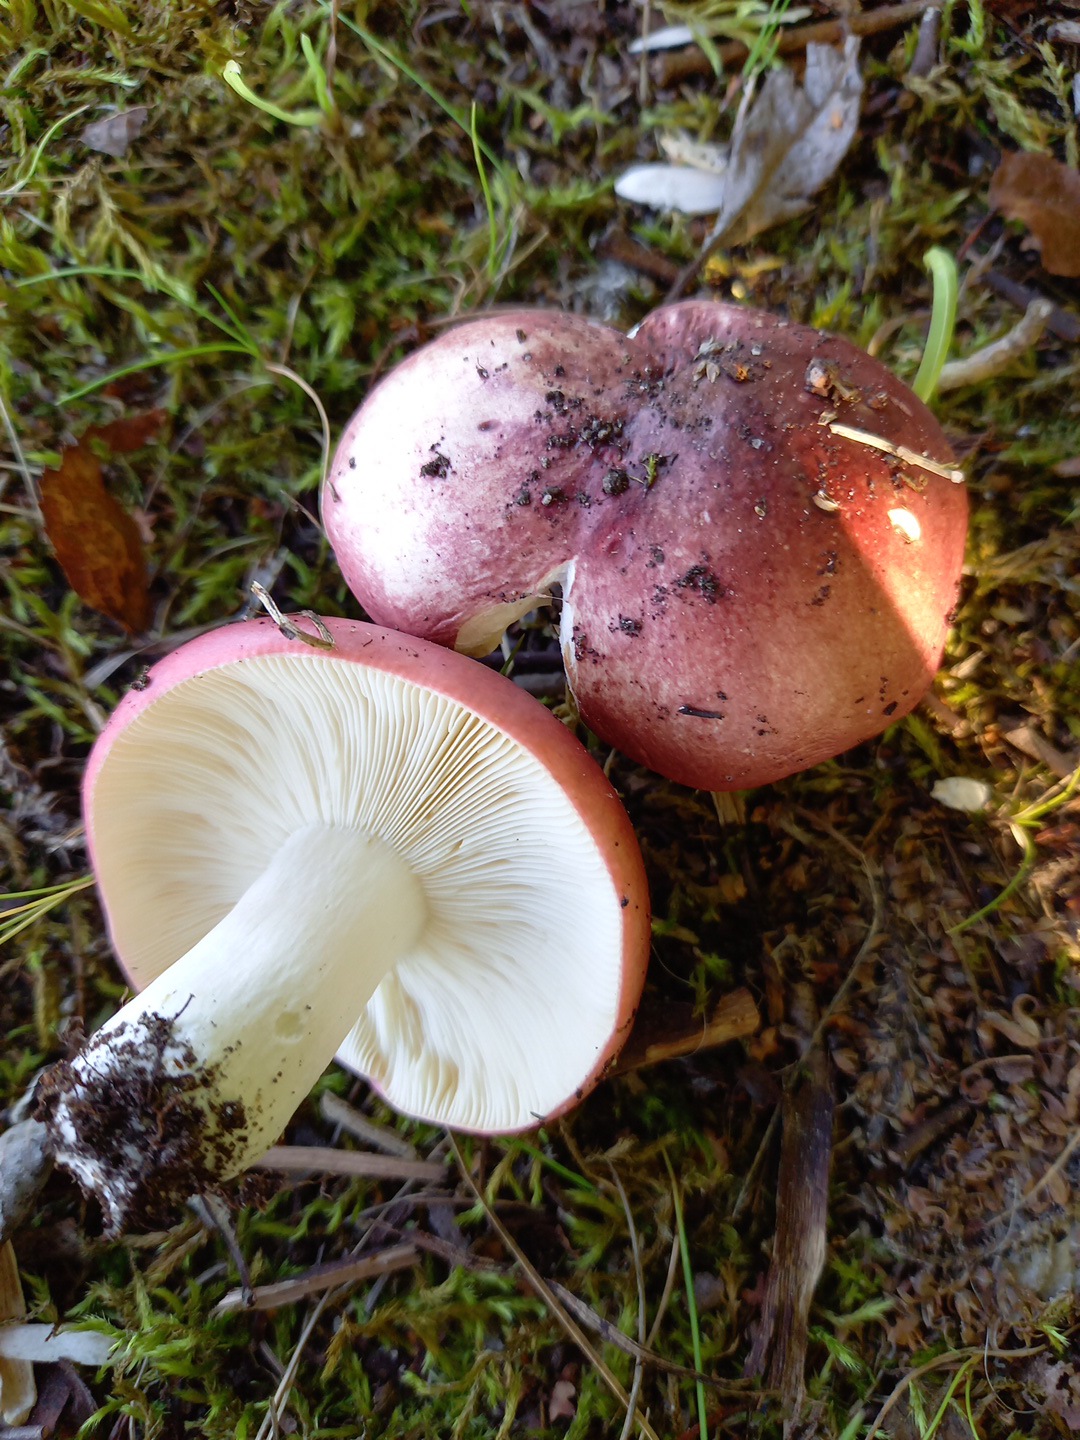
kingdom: Fungi
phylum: Basidiomycota
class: Agaricomycetes
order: Russulales
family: Russulaceae
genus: Russula
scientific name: Russula depallens
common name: falmende skørhat
